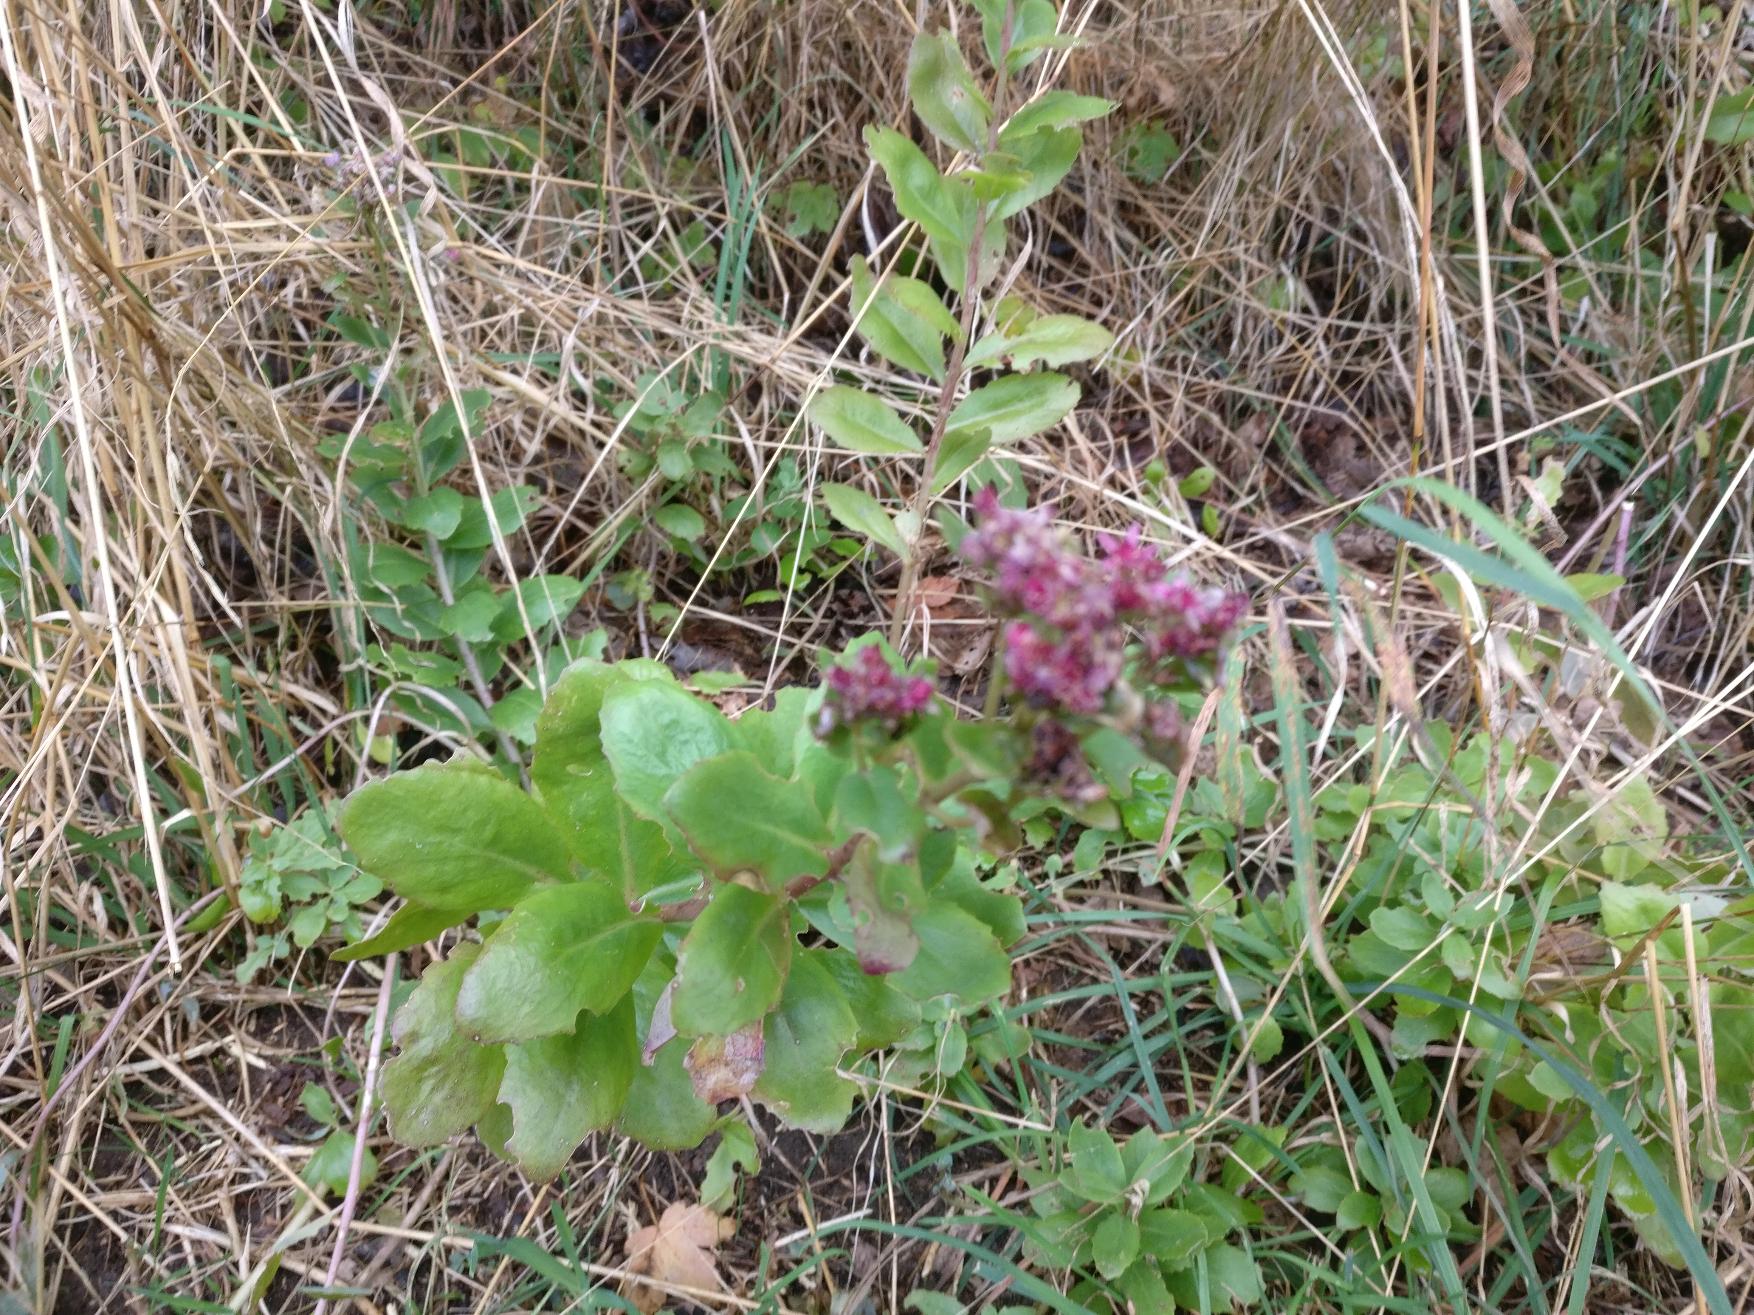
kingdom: Plantae
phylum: Tracheophyta
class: Magnoliopsida
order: Saxifragales
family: Crassulaceae
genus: Hylotelephium
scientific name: Hylotelephium telephium
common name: Rød sankthansurt
